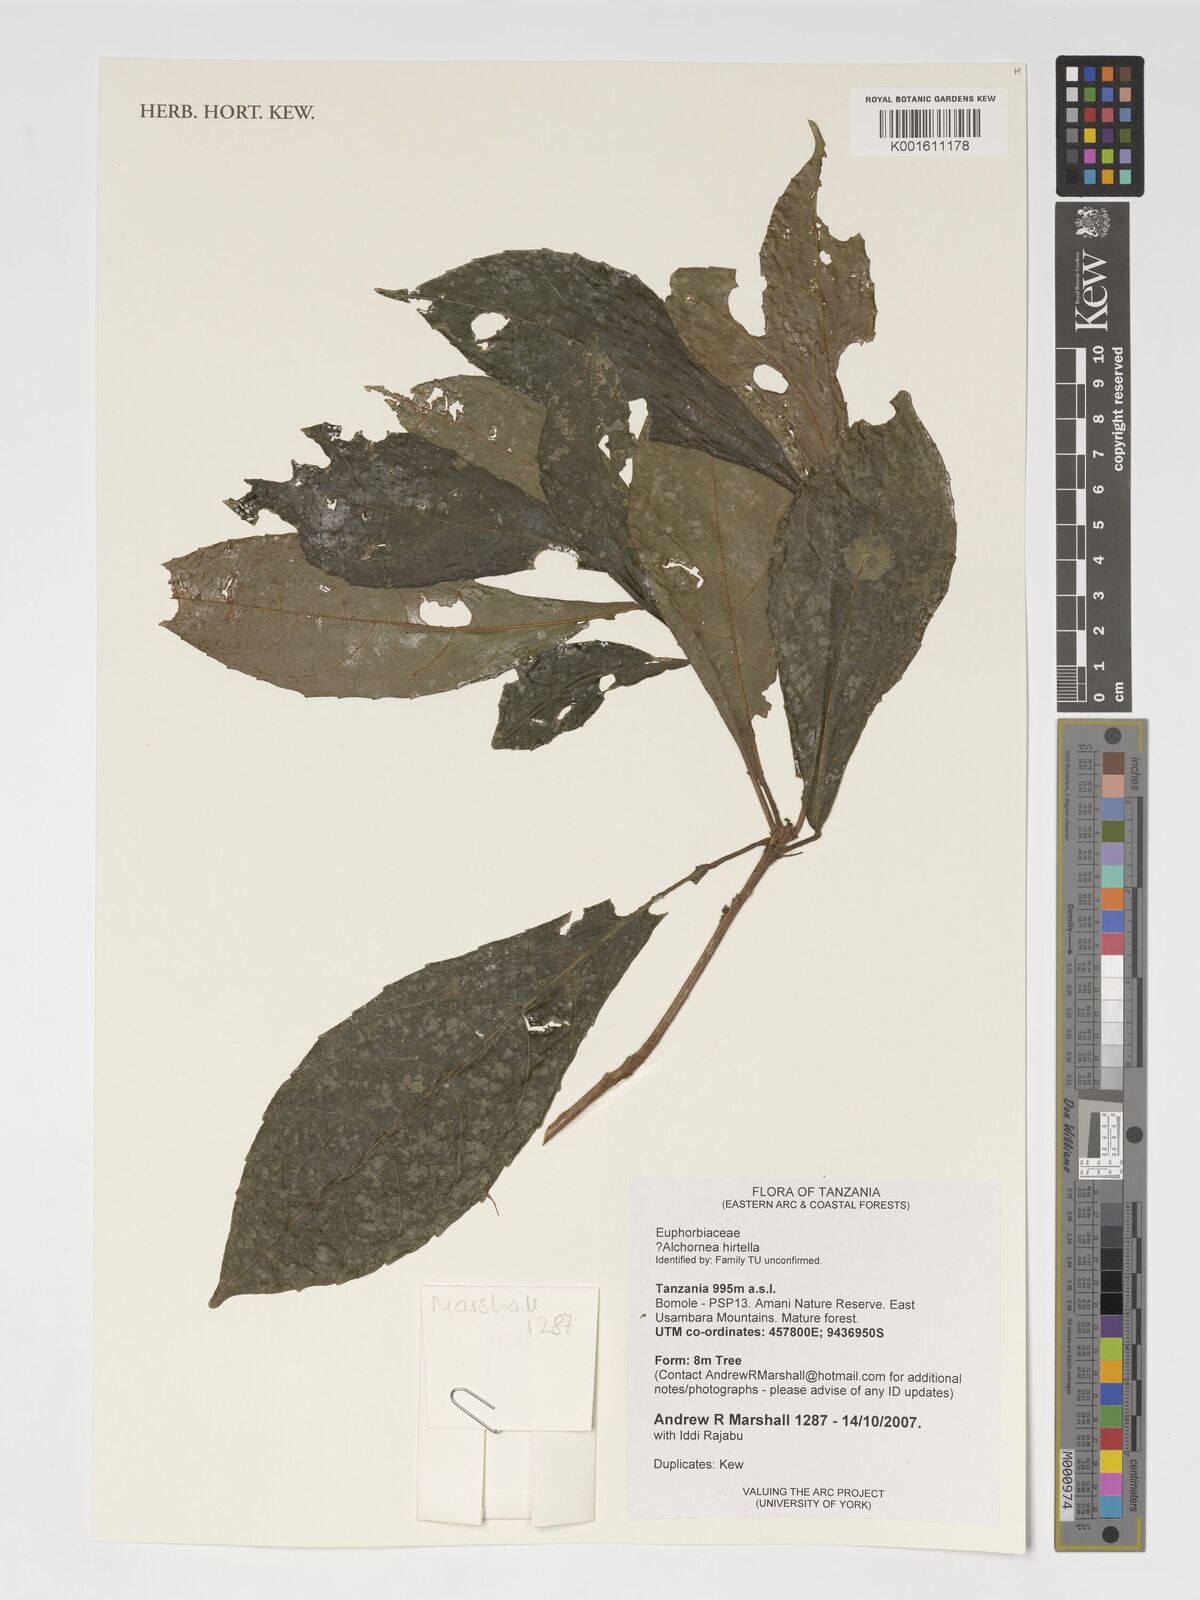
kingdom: Plantae
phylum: Tracheophyta
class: Magnoliopsida
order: Malpighiales
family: Euphorbiaceae
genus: Alchornea
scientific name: Alchornea hirtella
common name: Forest bead-string
